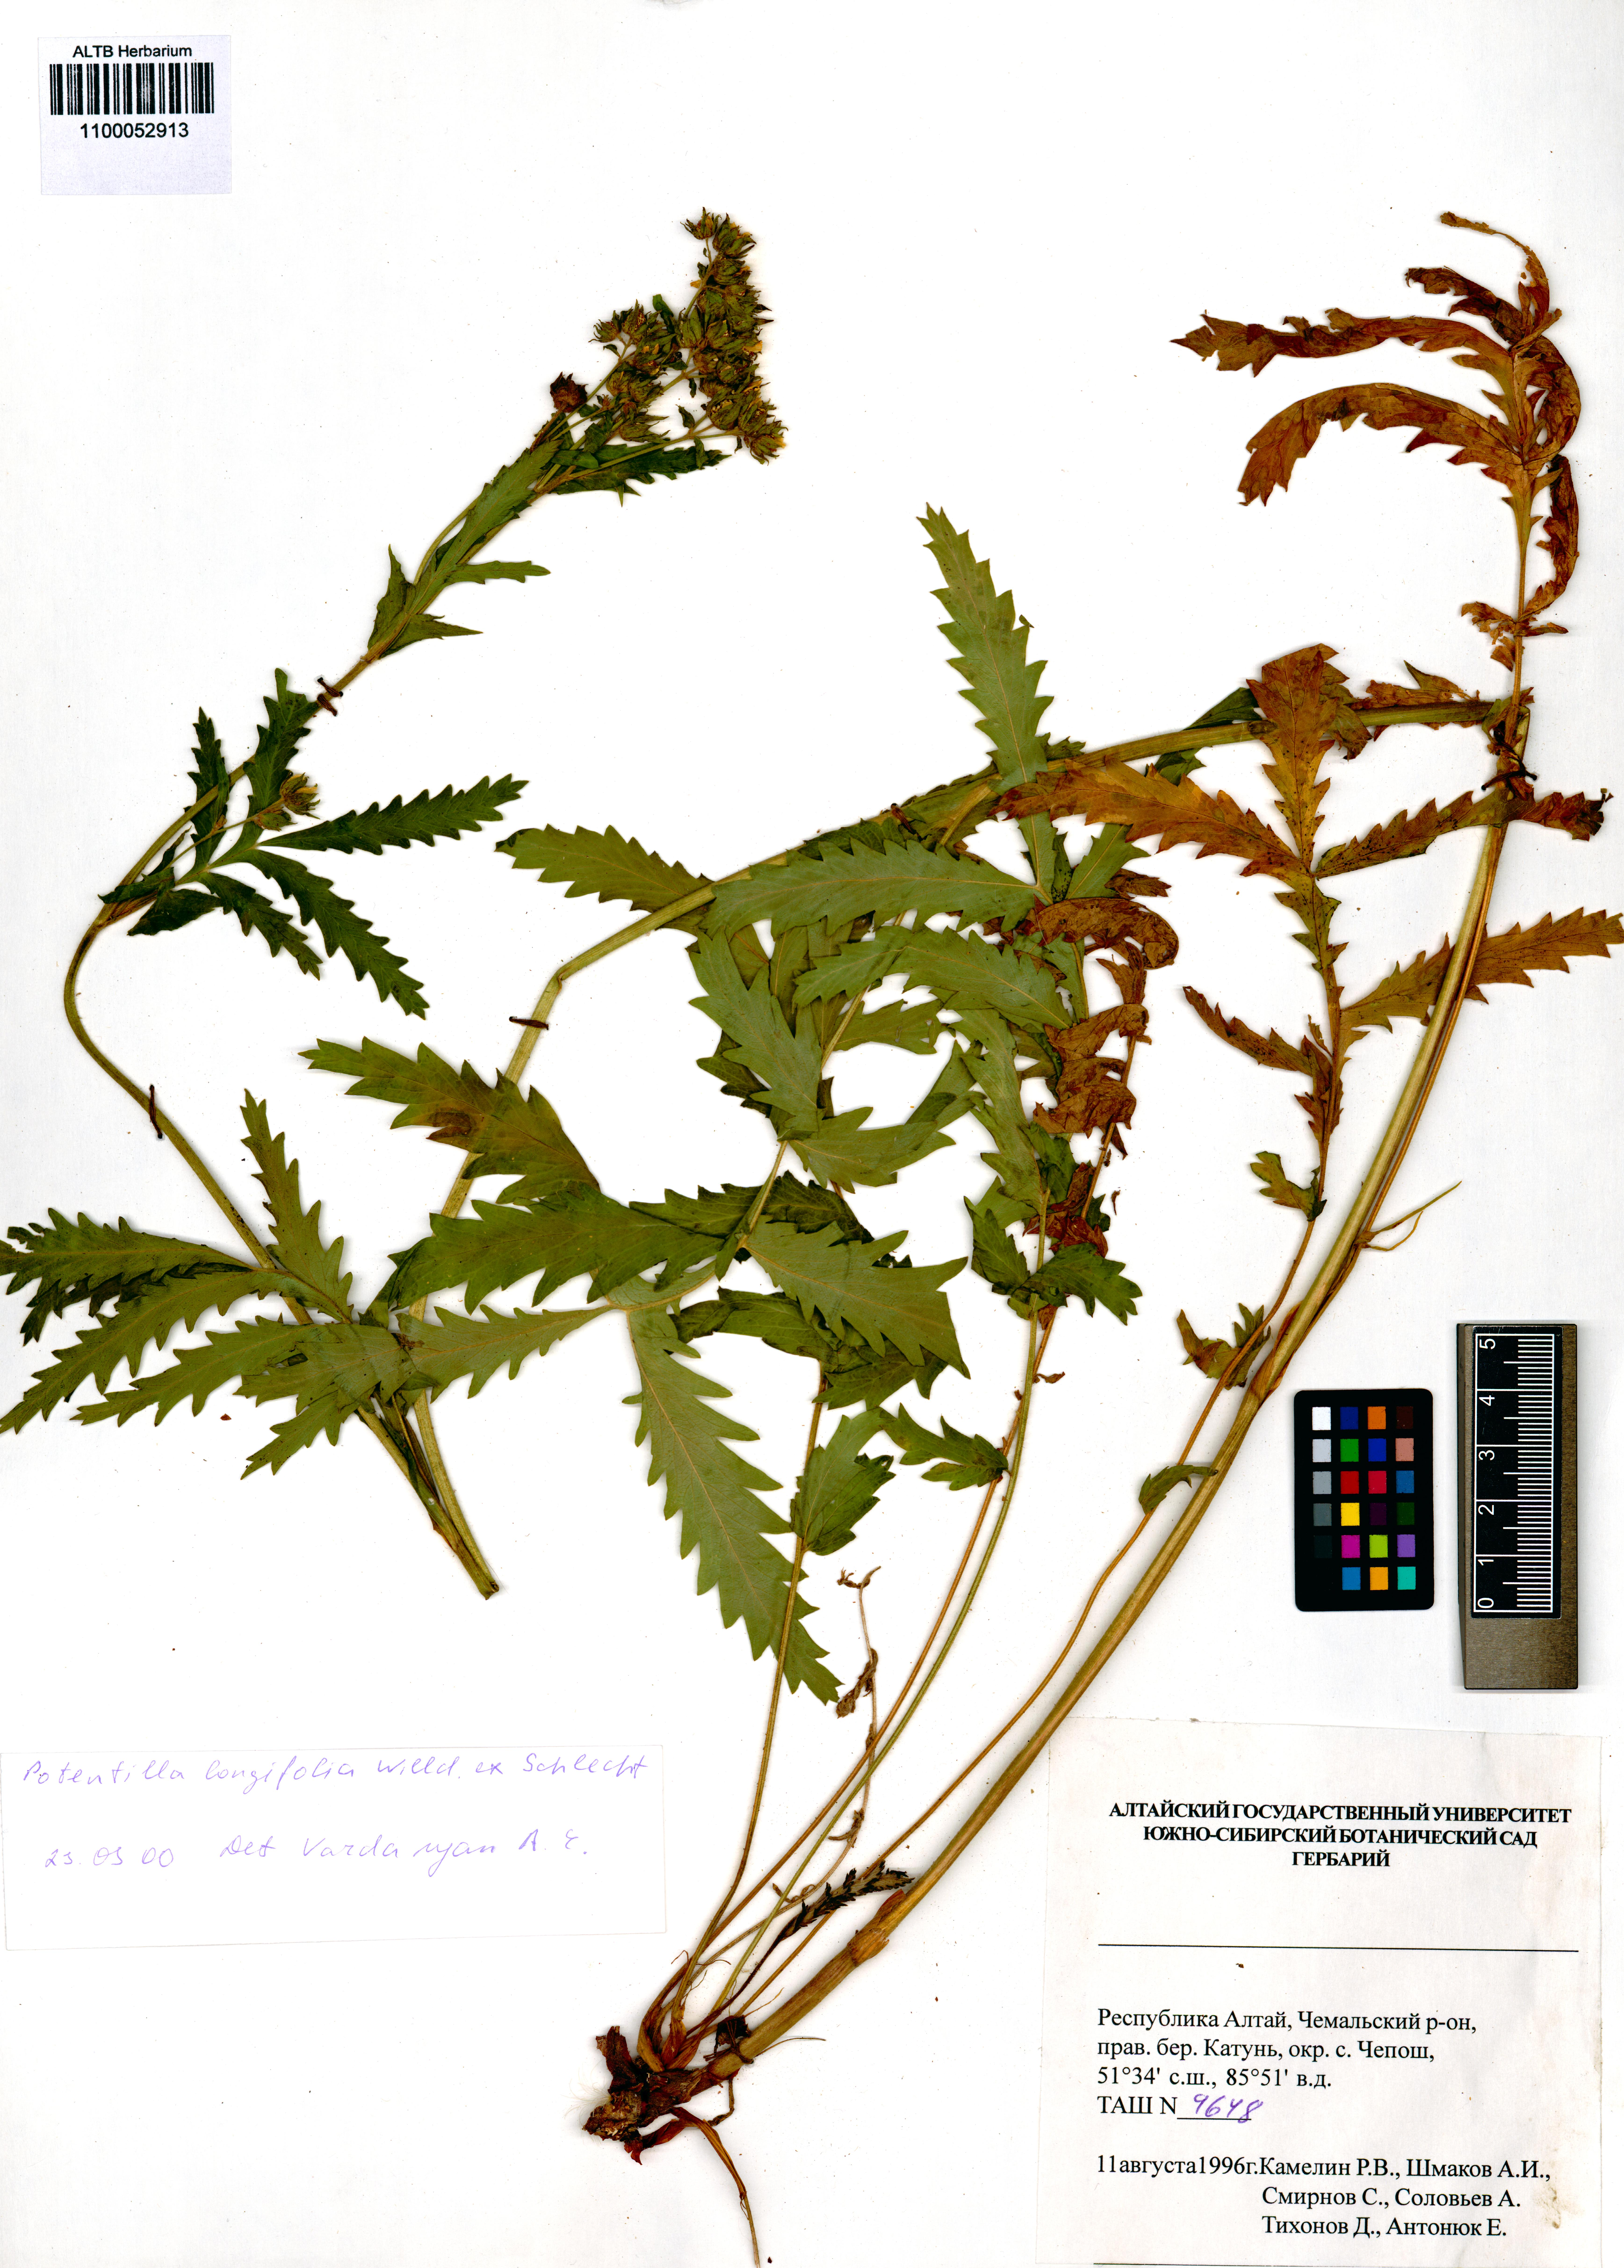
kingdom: Plantae
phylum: Tracheophyta
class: Magnoliopsida
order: Rosales
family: Rosaceae
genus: Potentilla
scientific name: Potentilla longifolia
